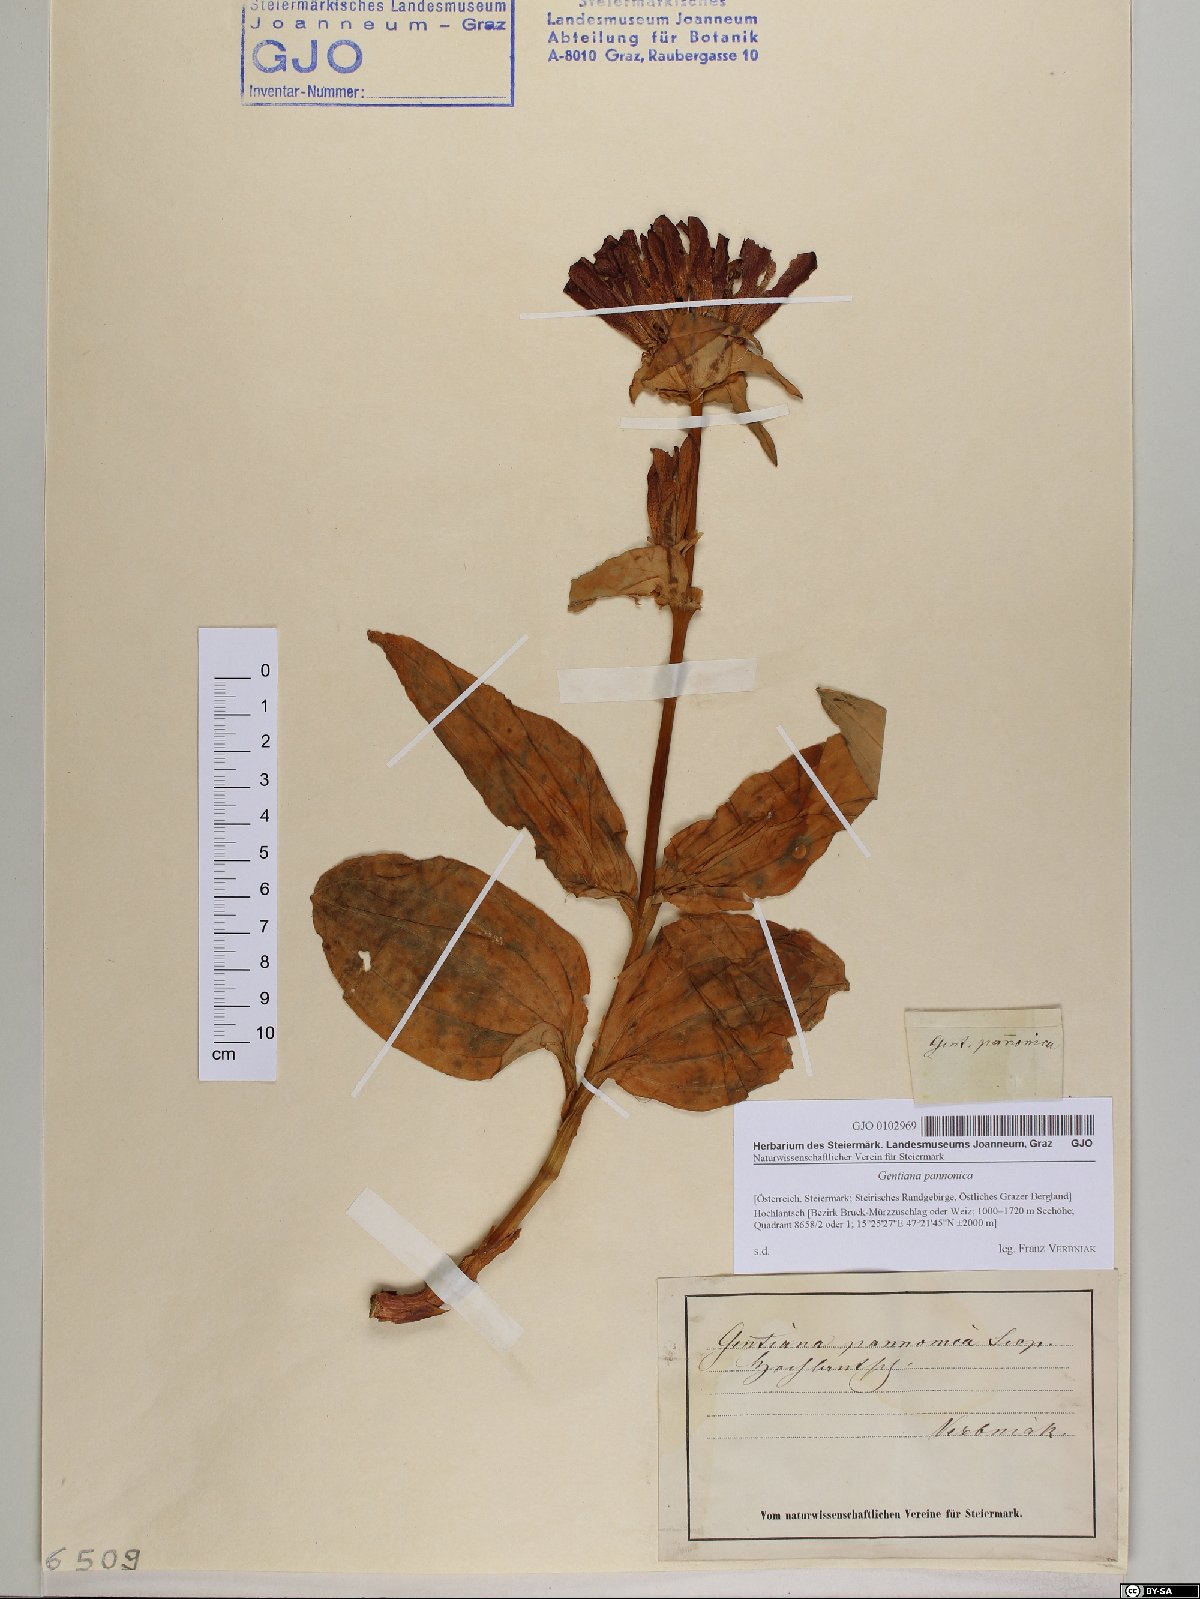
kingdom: Plantae
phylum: Tracheophyta
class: Magnoliopsida
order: Gentianales
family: Gentianaceae
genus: Gentiana
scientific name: Gentiana pannonica
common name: Hungarian gentian
